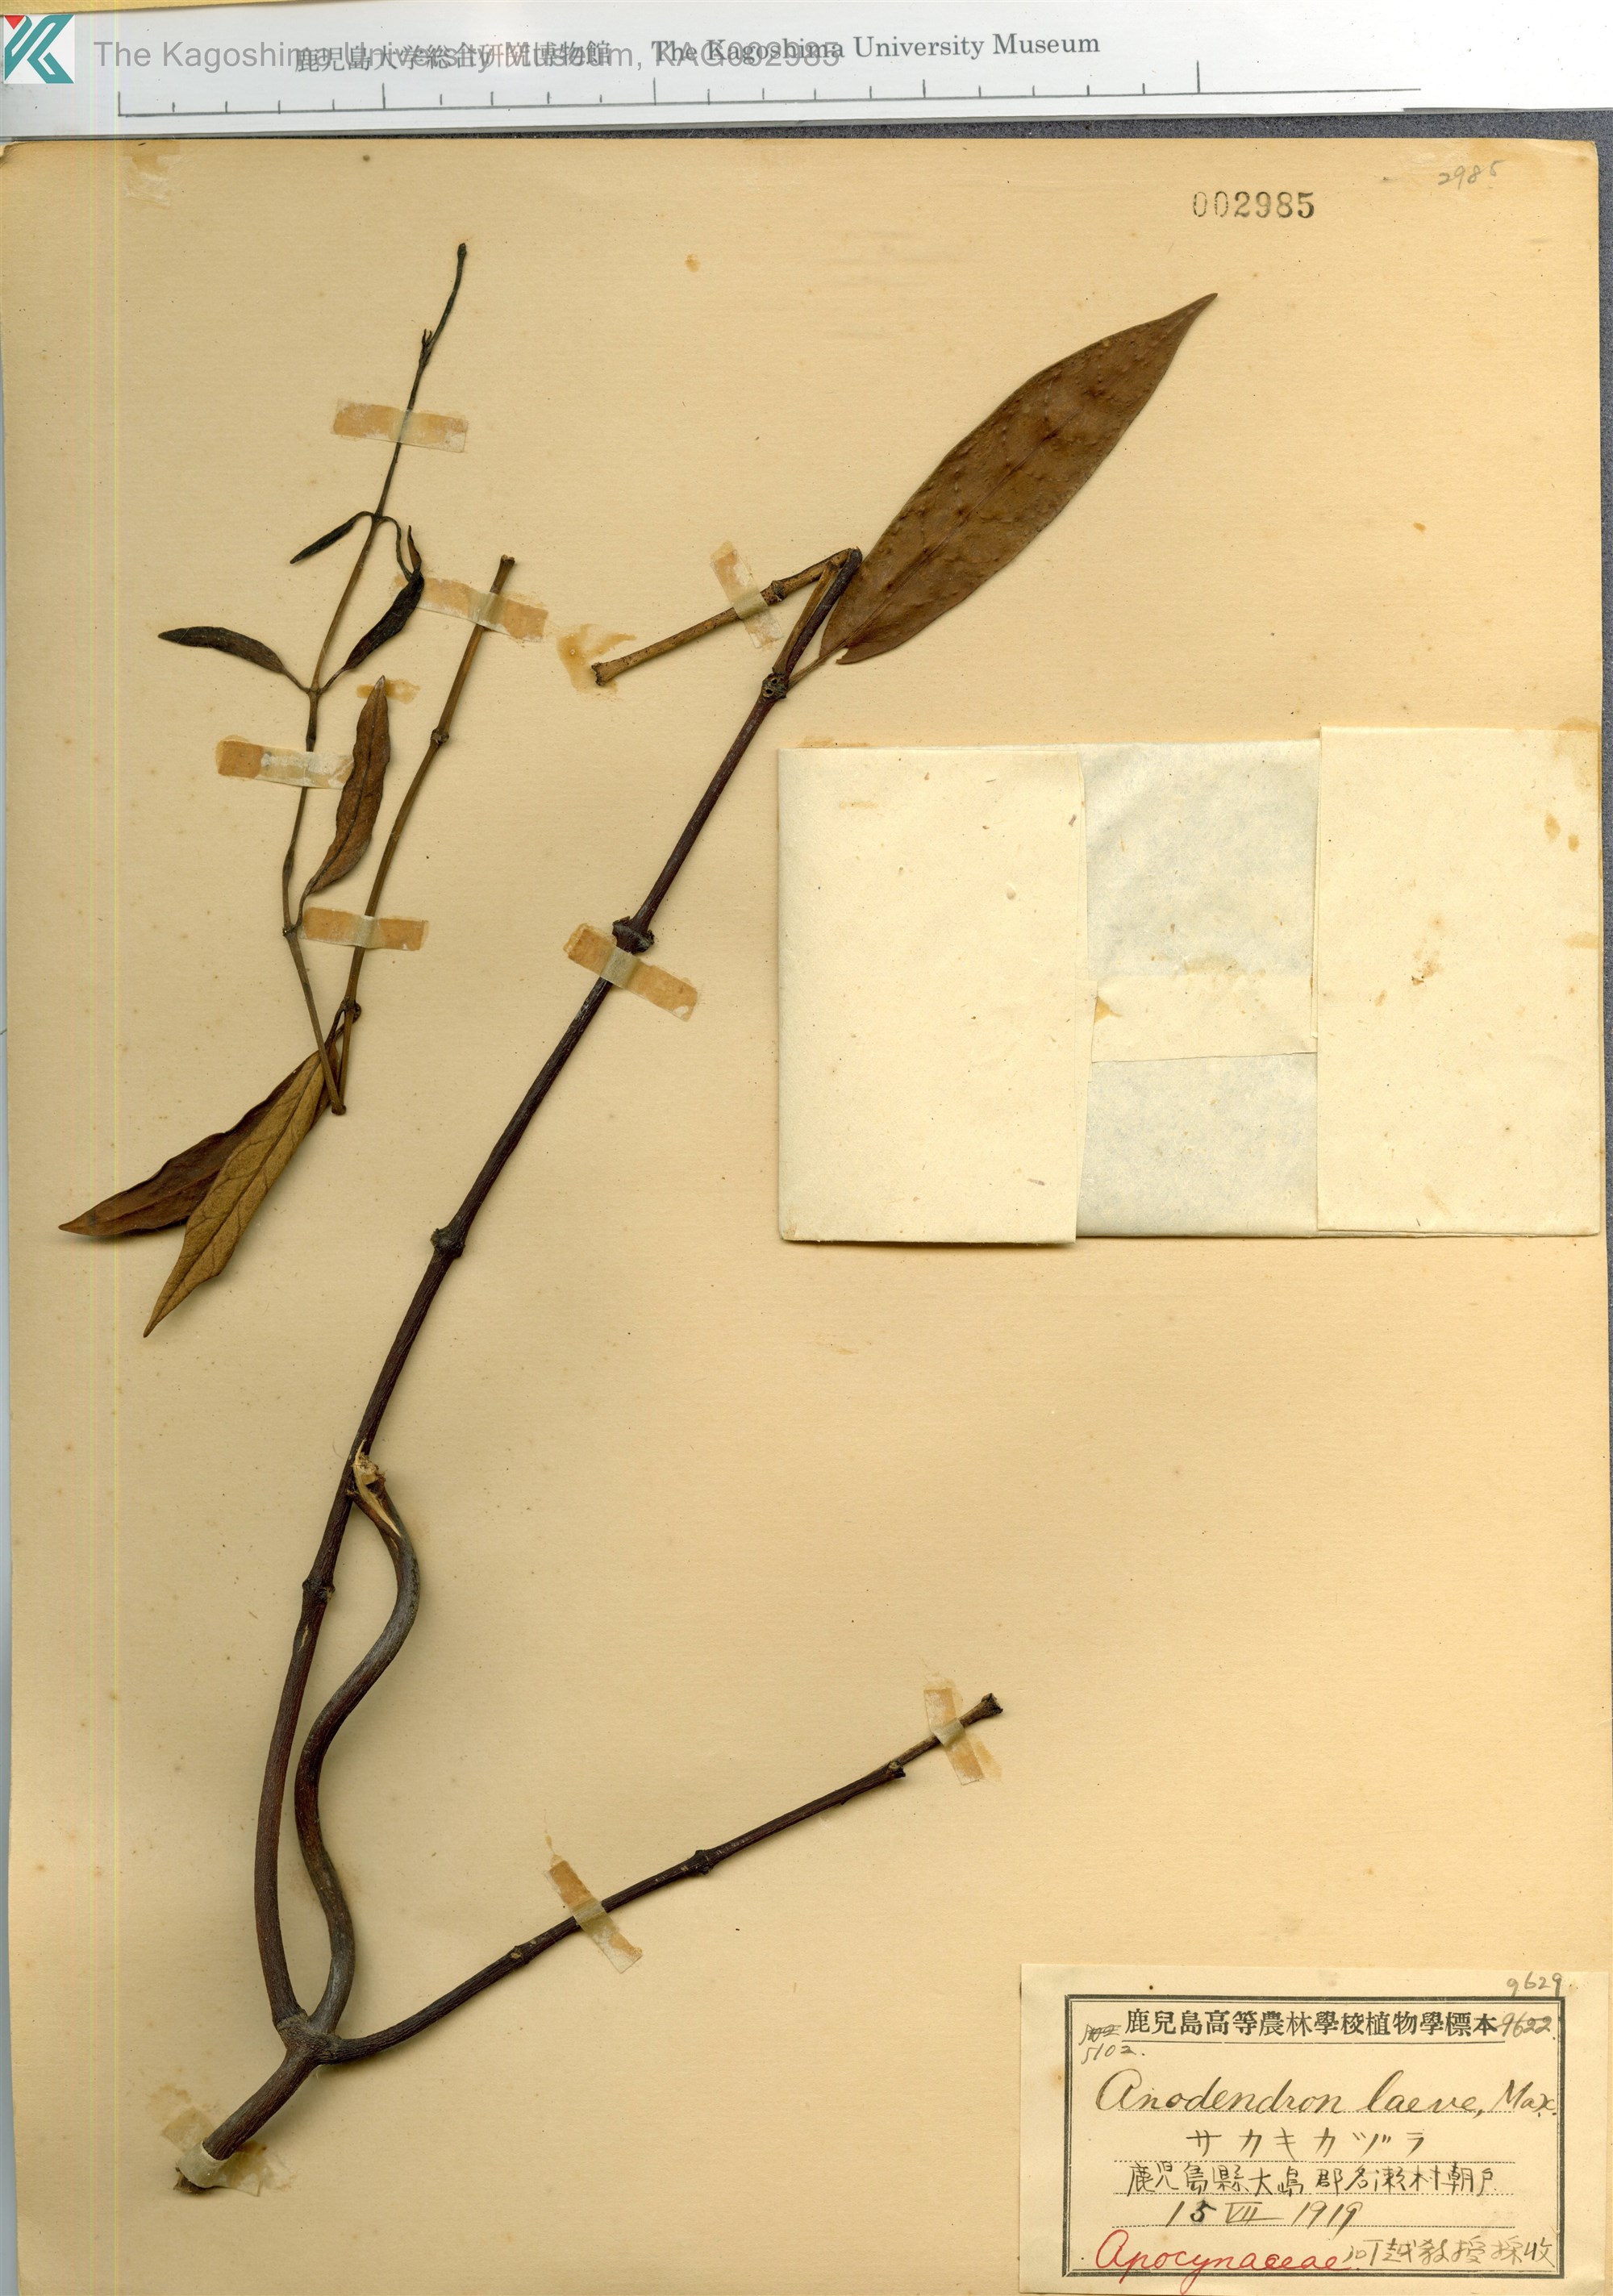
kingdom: Plantae
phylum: Tracheophyta
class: Magnoliopsida
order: Gentianales
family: Apocynaceae
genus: Anodendron
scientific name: Anodendron affine
